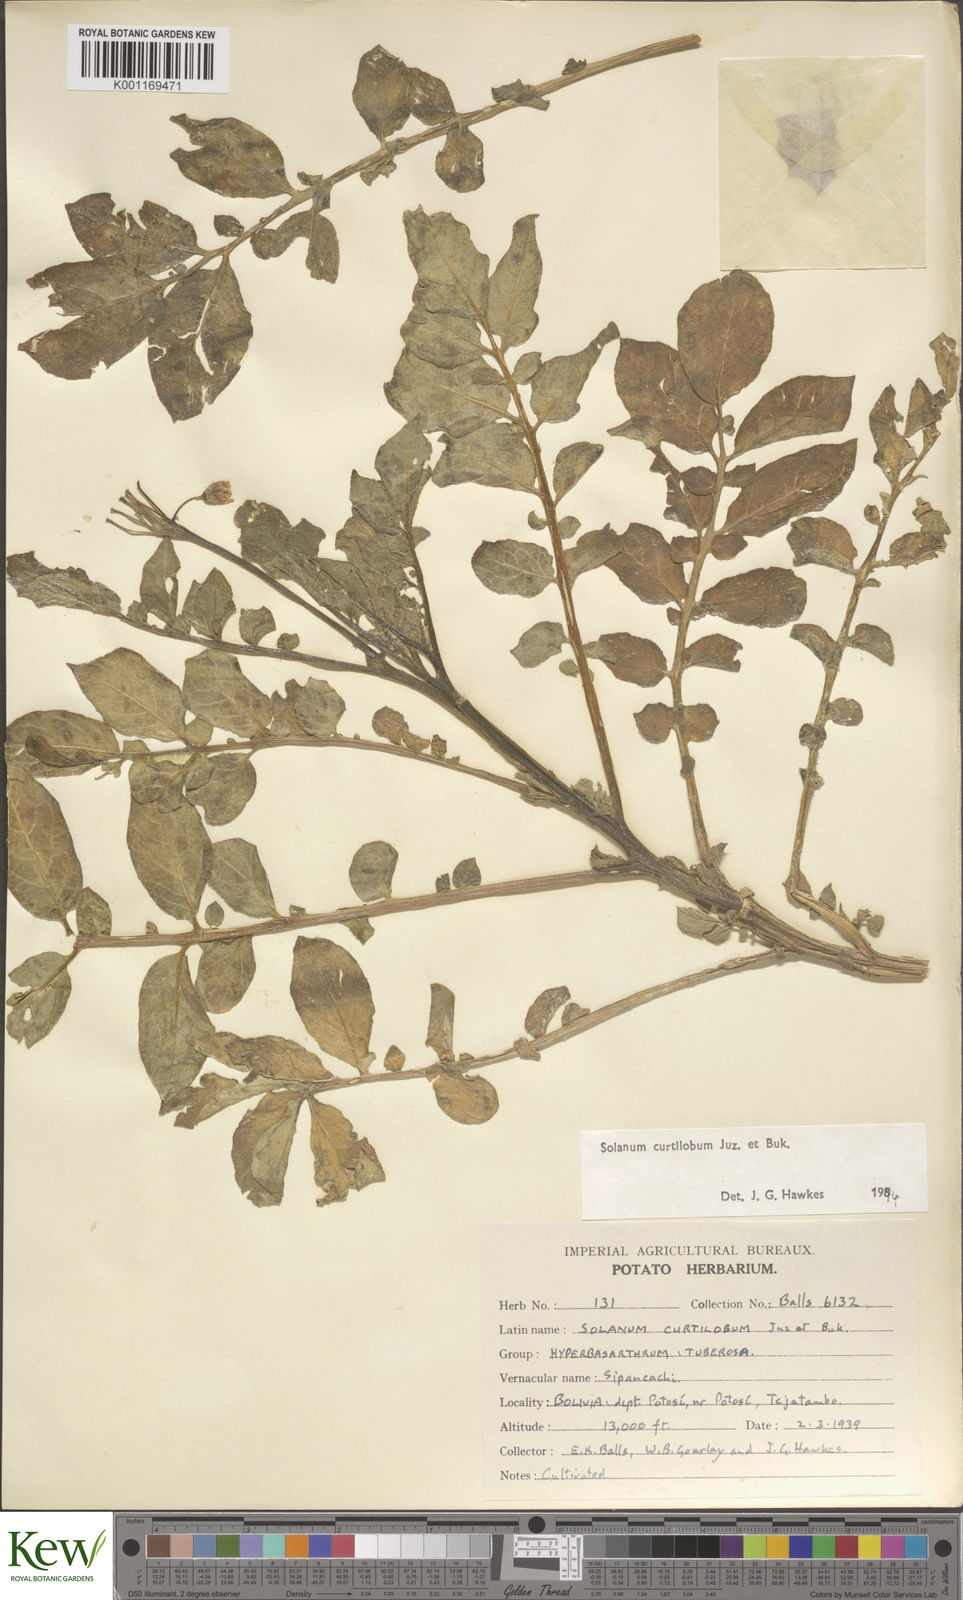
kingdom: Plantae
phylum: Tracheophyta
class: Magnoliopsida
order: Solanales
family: Solanaceae
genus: Solanum
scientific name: Solanum curtilobum
